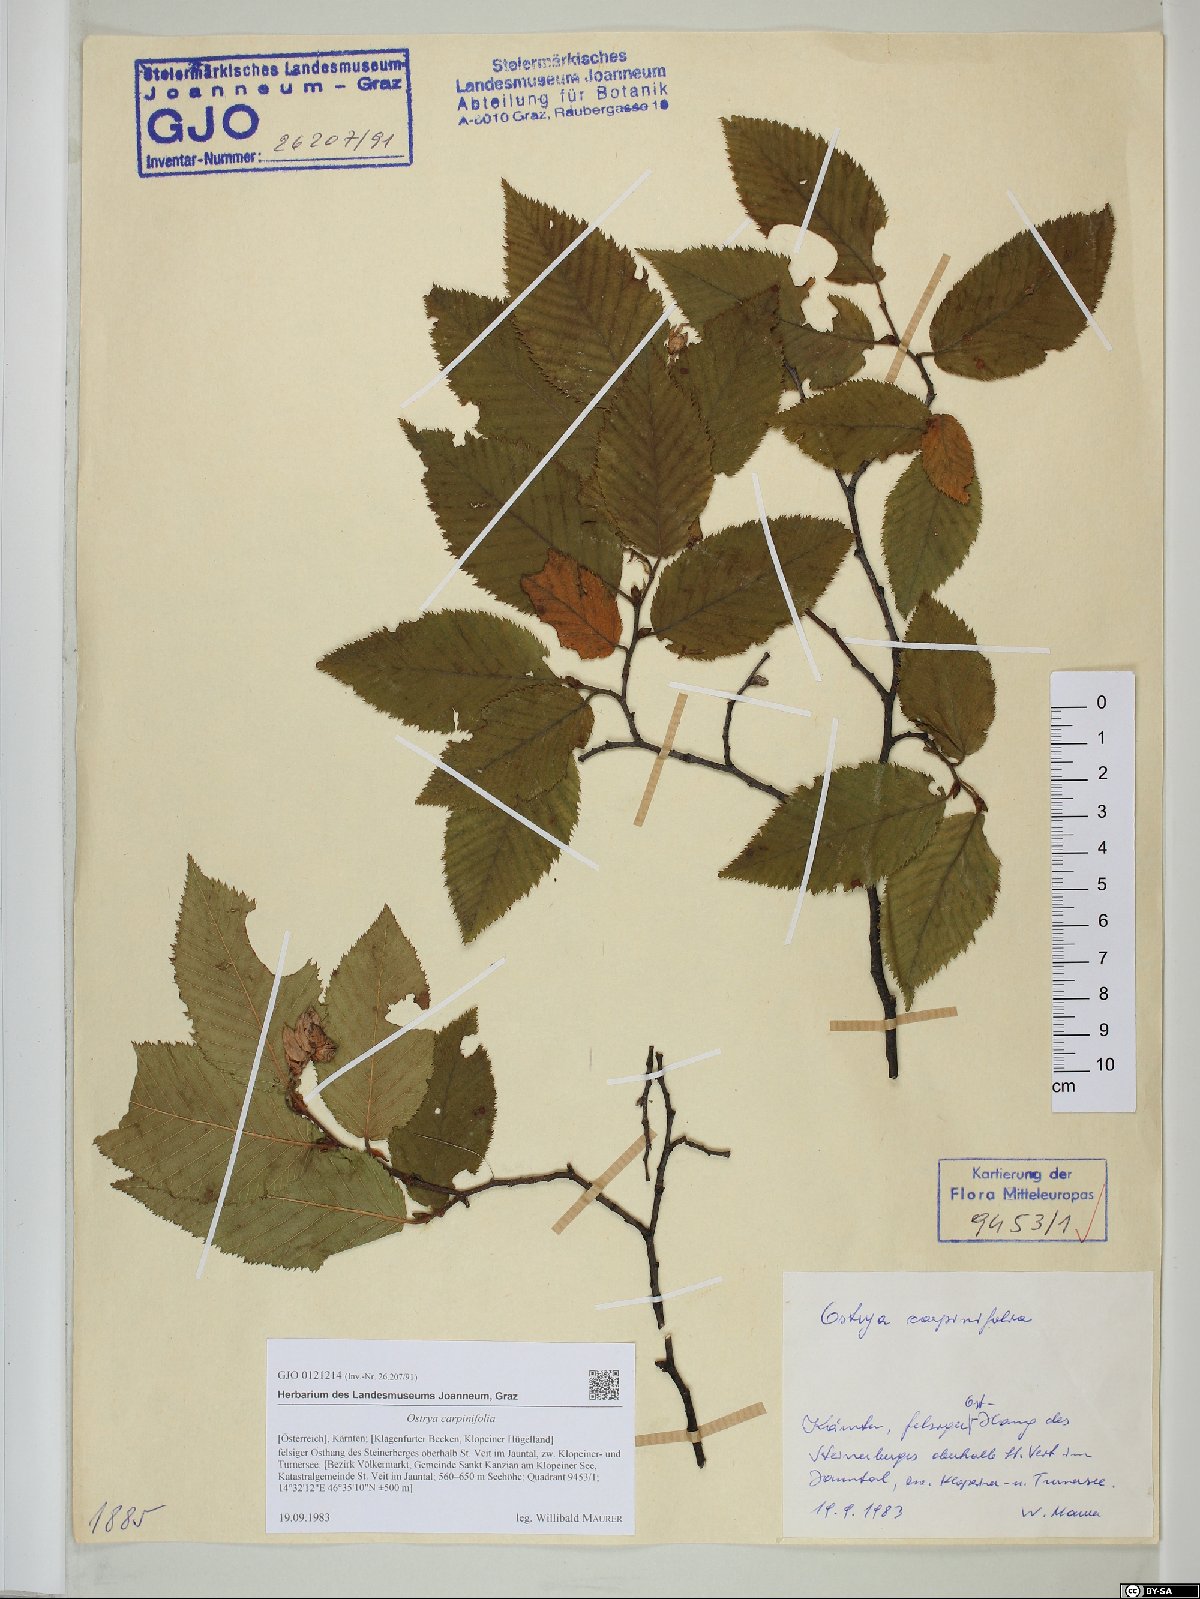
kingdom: Plantae
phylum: Tracheophyta
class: Magnoliopsida
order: Fagales
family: Betulaceae
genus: Ostrya
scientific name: Ostrya carpinifolia
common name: European hop-hornbeam
